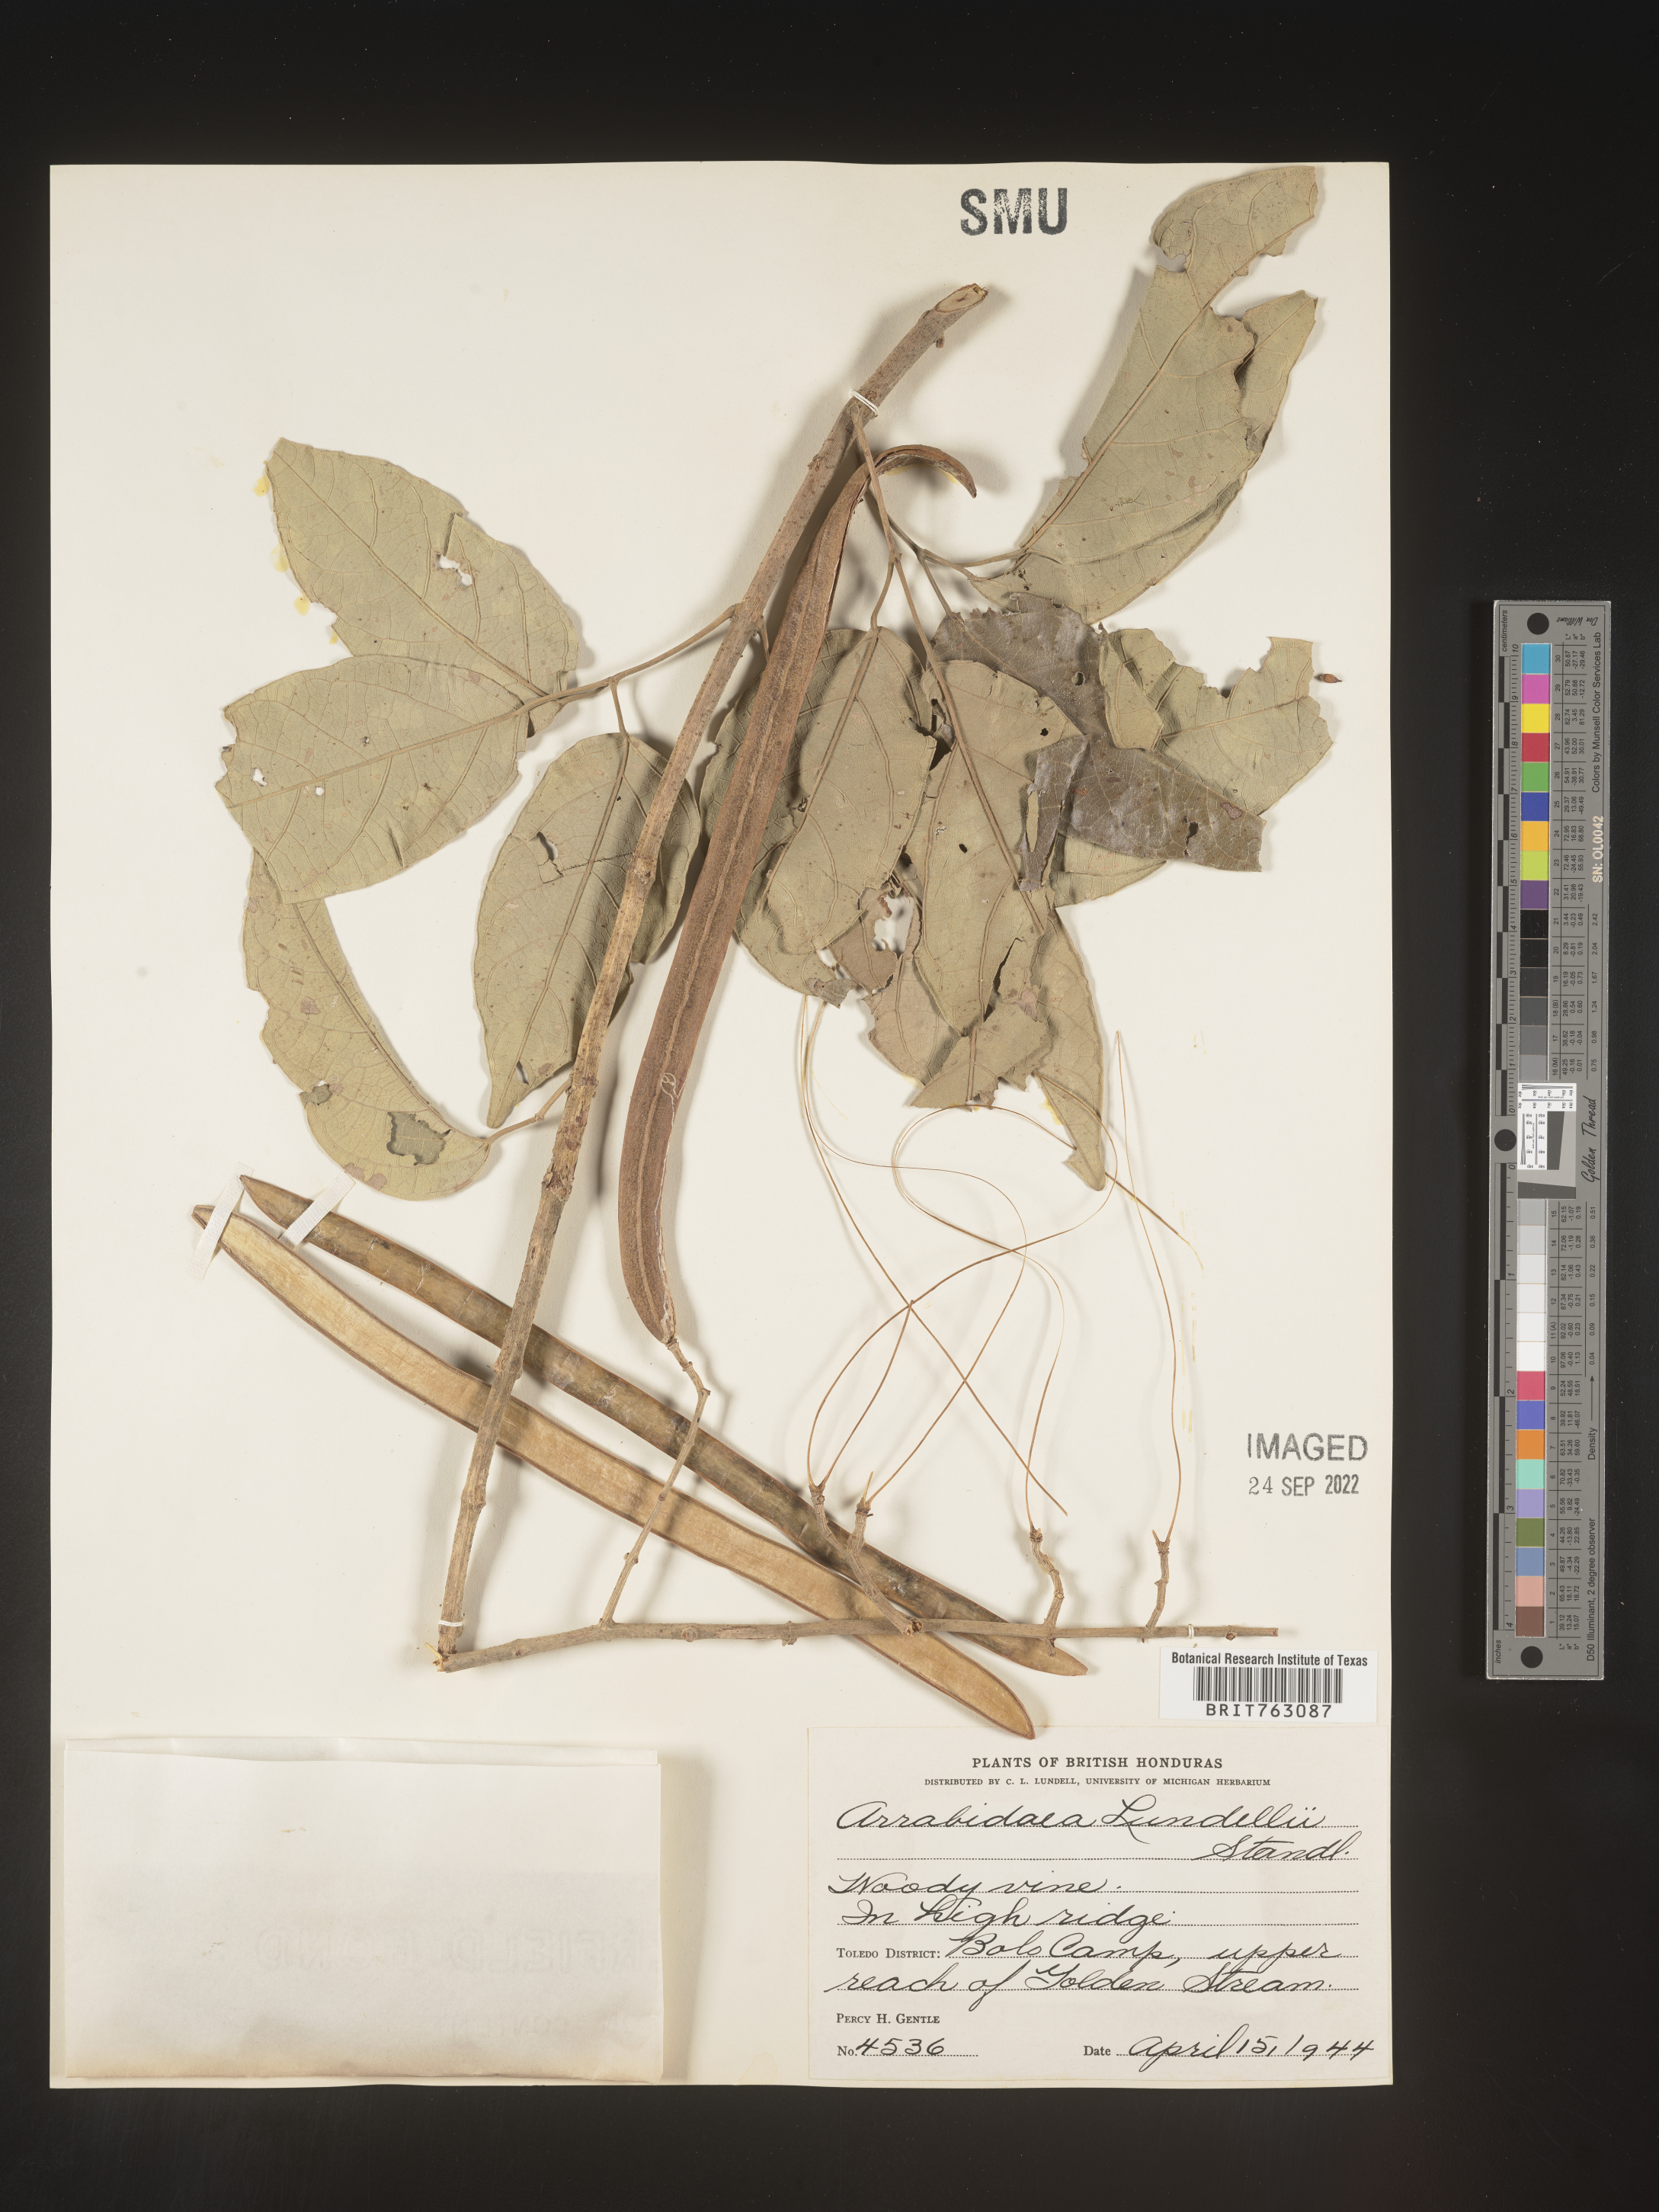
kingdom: Plantae
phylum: Tracheophyta
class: Magnoliopsida
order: Rosales
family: Rhamnaceae
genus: Arrabidaea
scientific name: Arrabidaea
